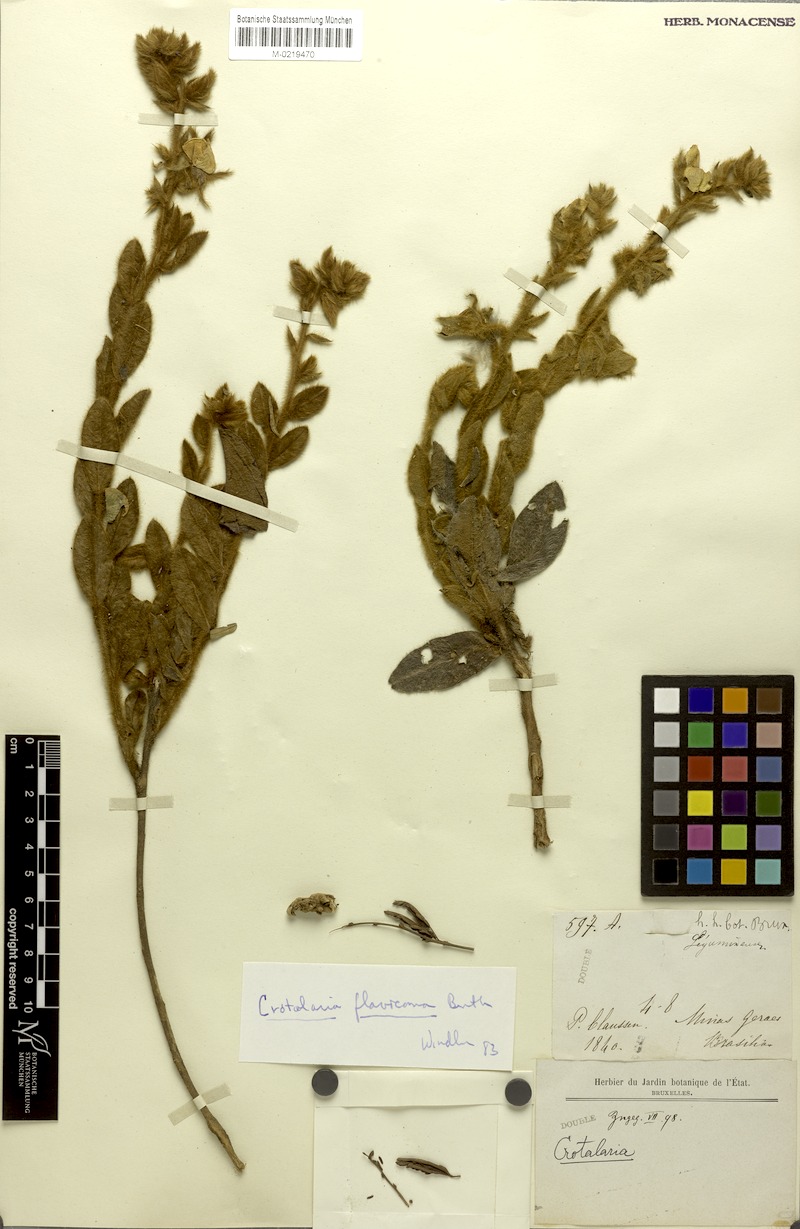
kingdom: Plantae
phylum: Tracheophyta
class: Magnoliopsida
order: Fabales
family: Fabaceae
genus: Crotalaria
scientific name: Crotalaria flavicoma
